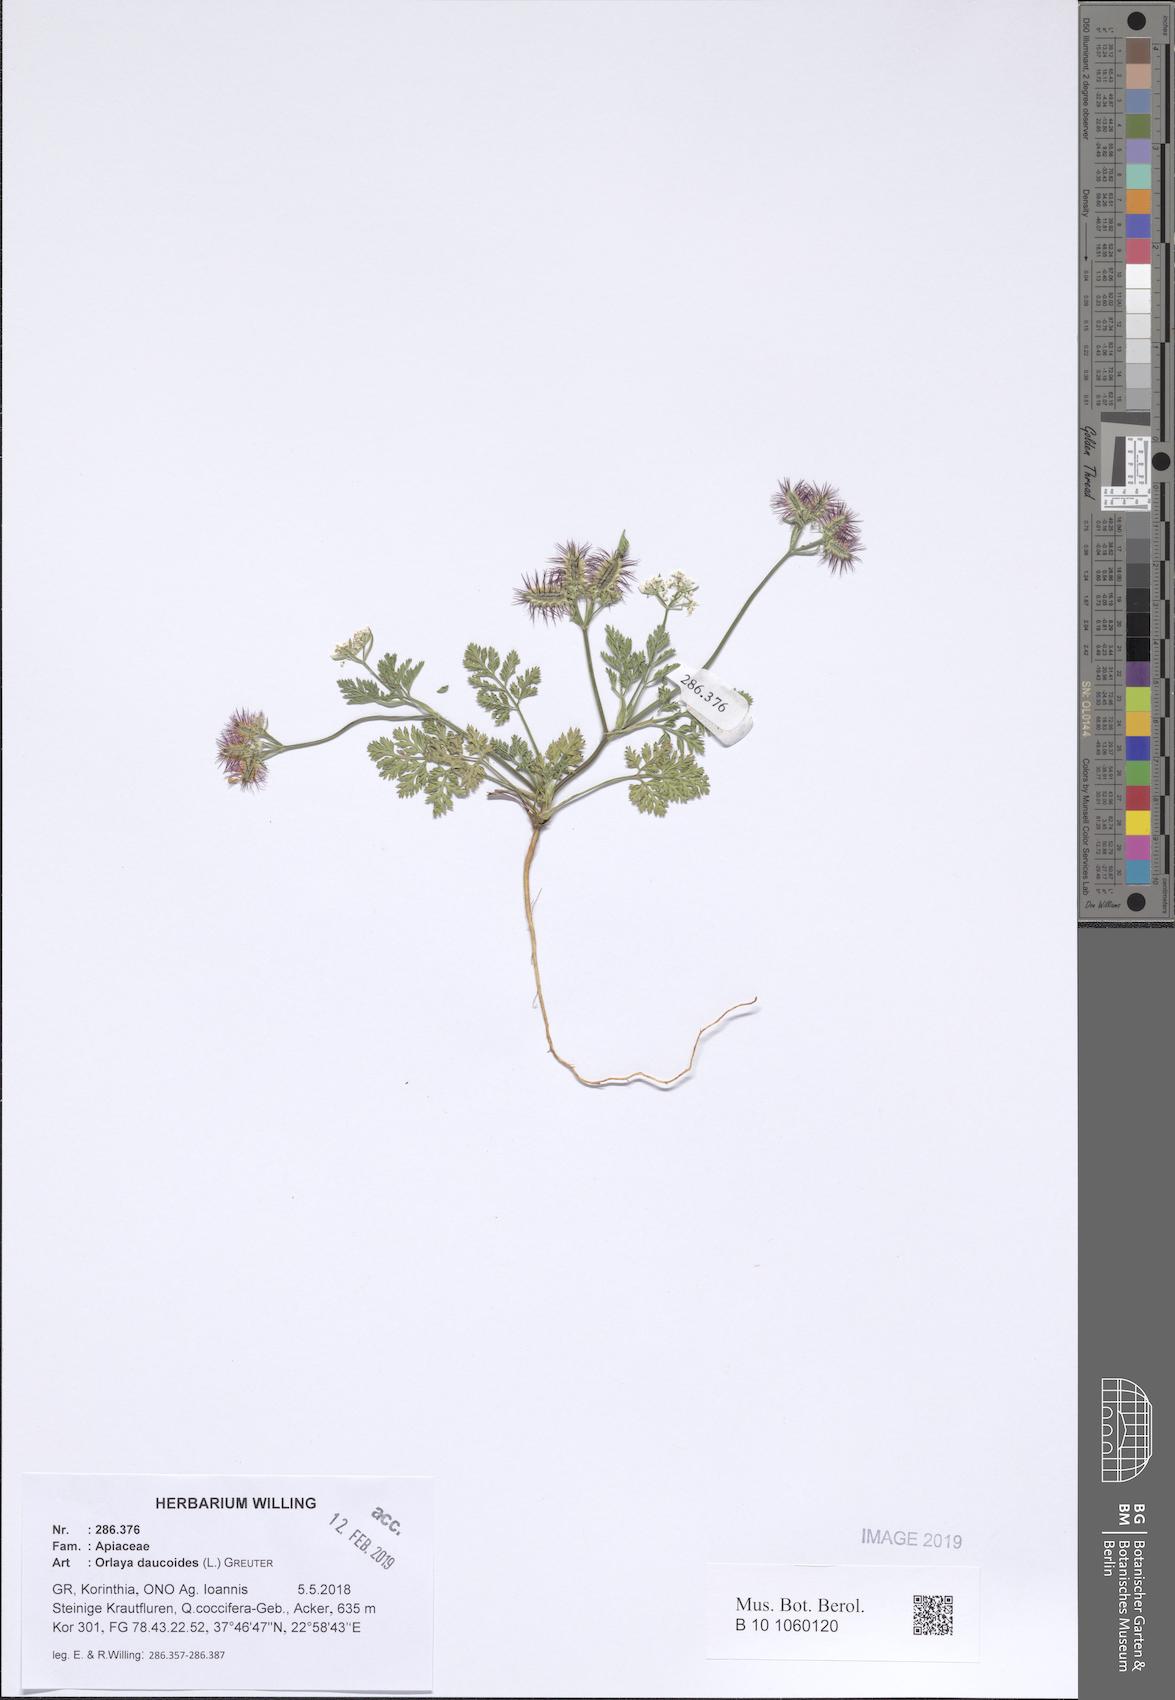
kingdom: Plantae
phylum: Tracheophyta
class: Magnoliopsida
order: Apiales
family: Apiaceae
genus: Orlaya
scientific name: Orlaya daucoides
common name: Flat-fruit orlaya
